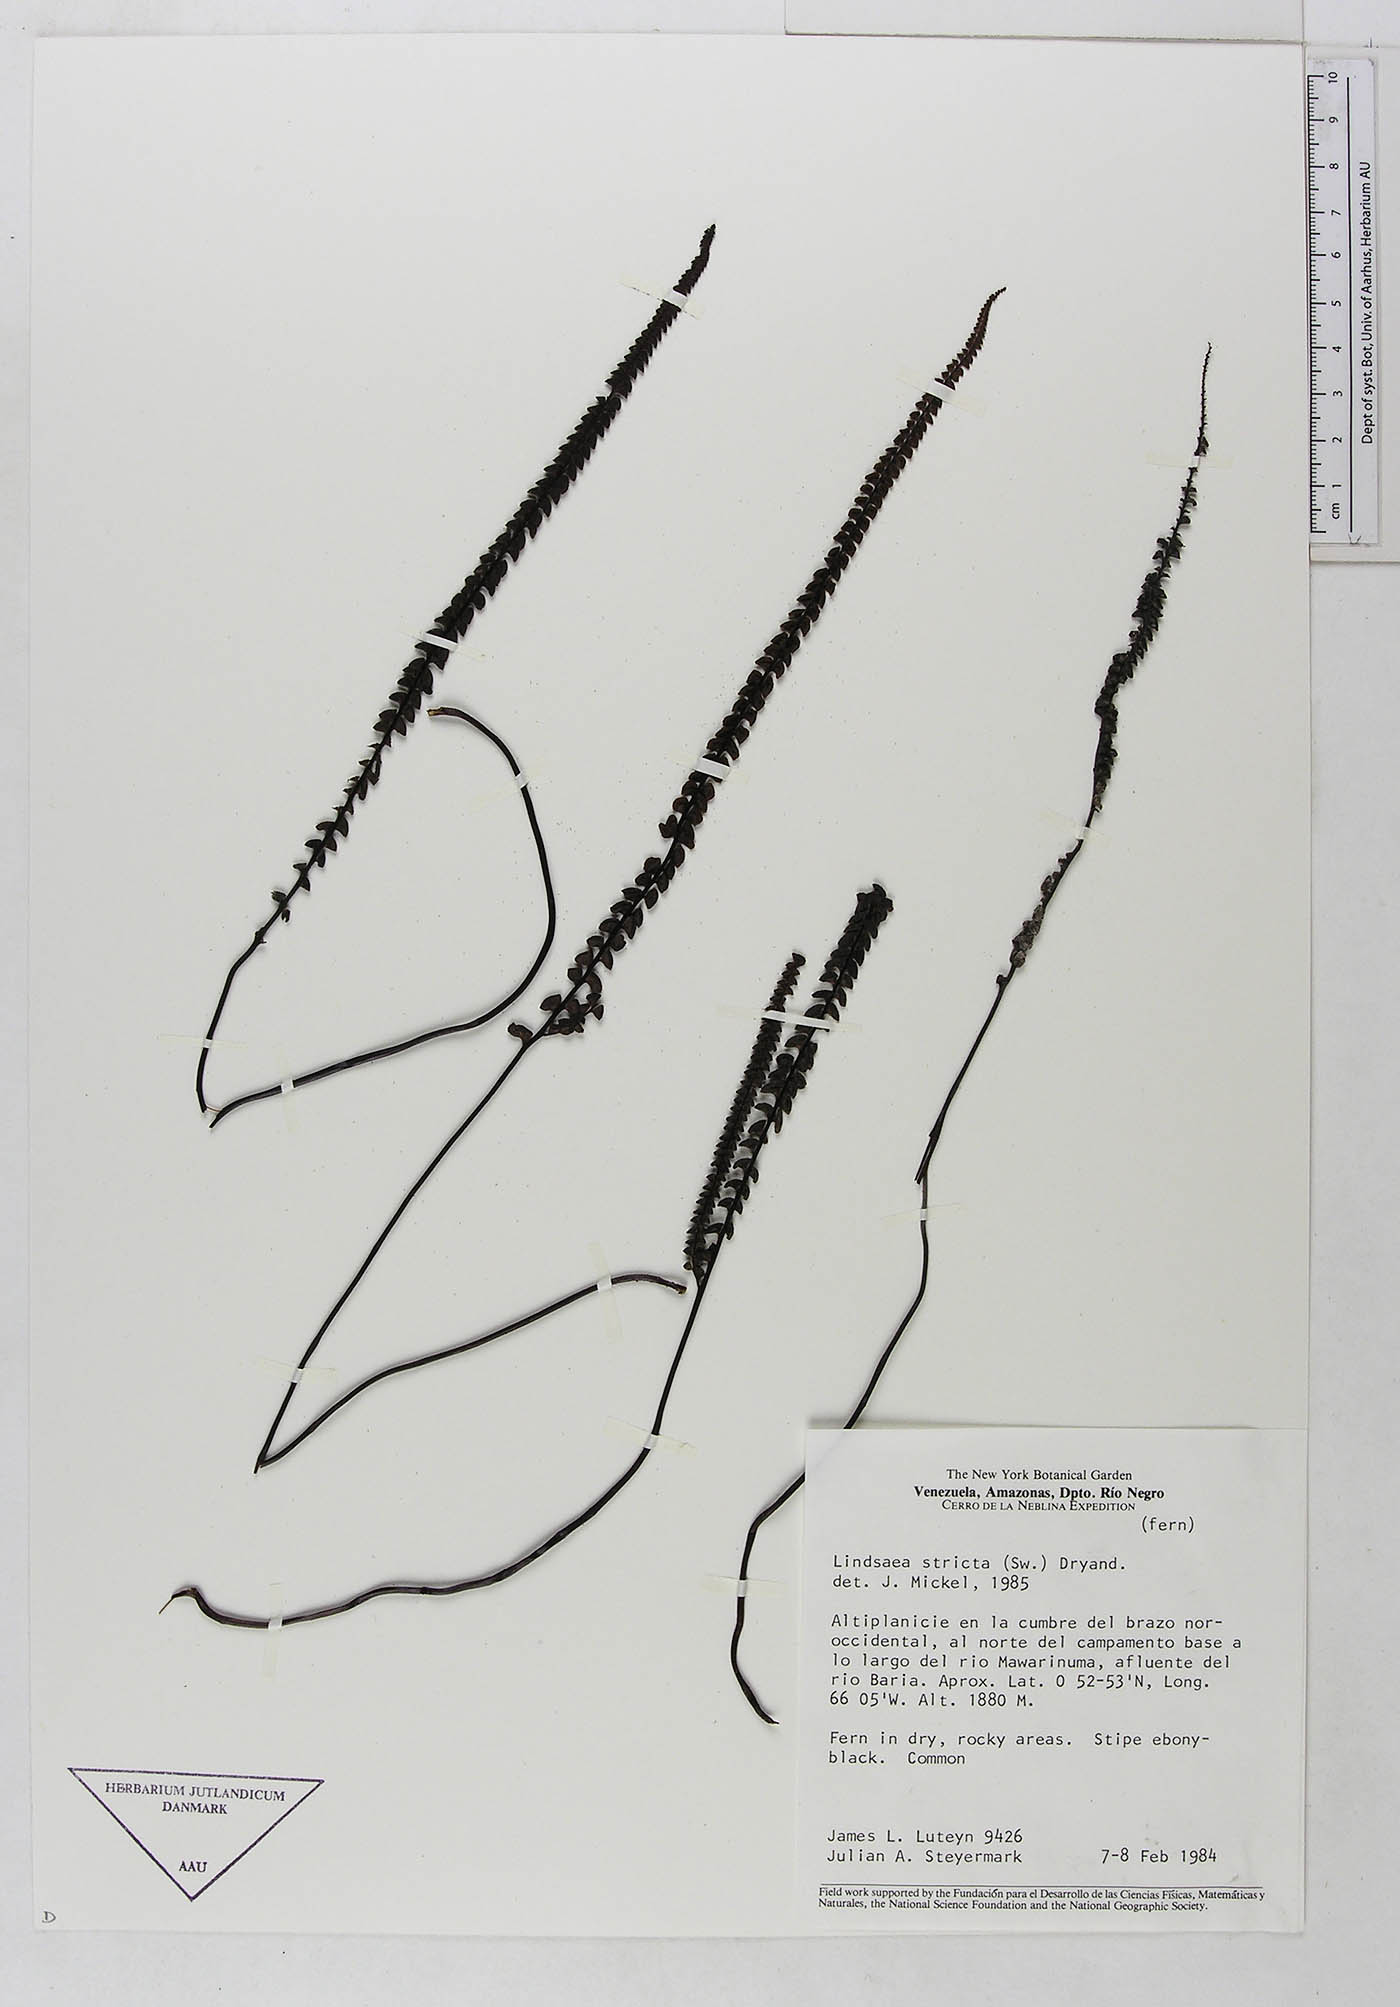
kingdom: Plantae
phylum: Tracheophyta
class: Polypodiopsida
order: Polypodiales
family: Lindsaeaceae
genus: Lindsaea
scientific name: Lindsaea stricta
